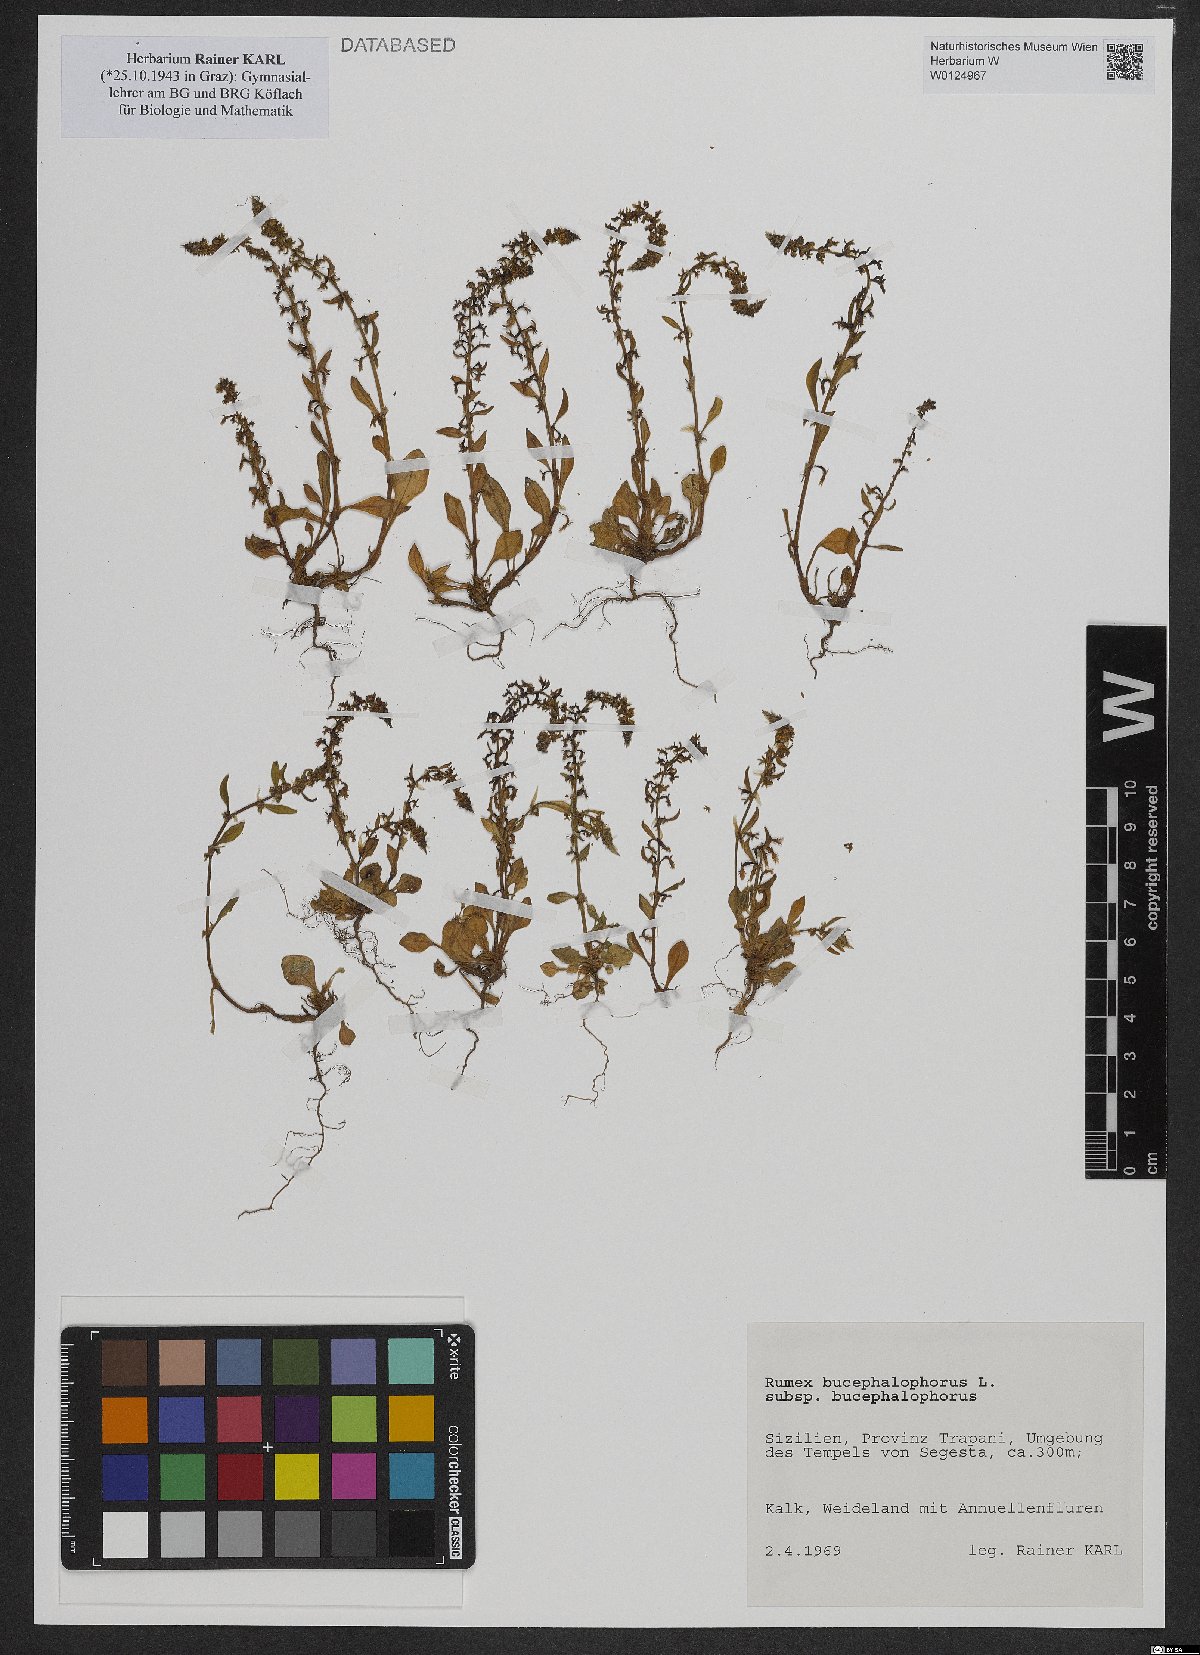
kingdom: Plantae
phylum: Tracheophyta
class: Magnoliopsida
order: Caryophyllales
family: Polygonaceae
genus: Rumex
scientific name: Rumex bucephalophorus
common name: Red dock
